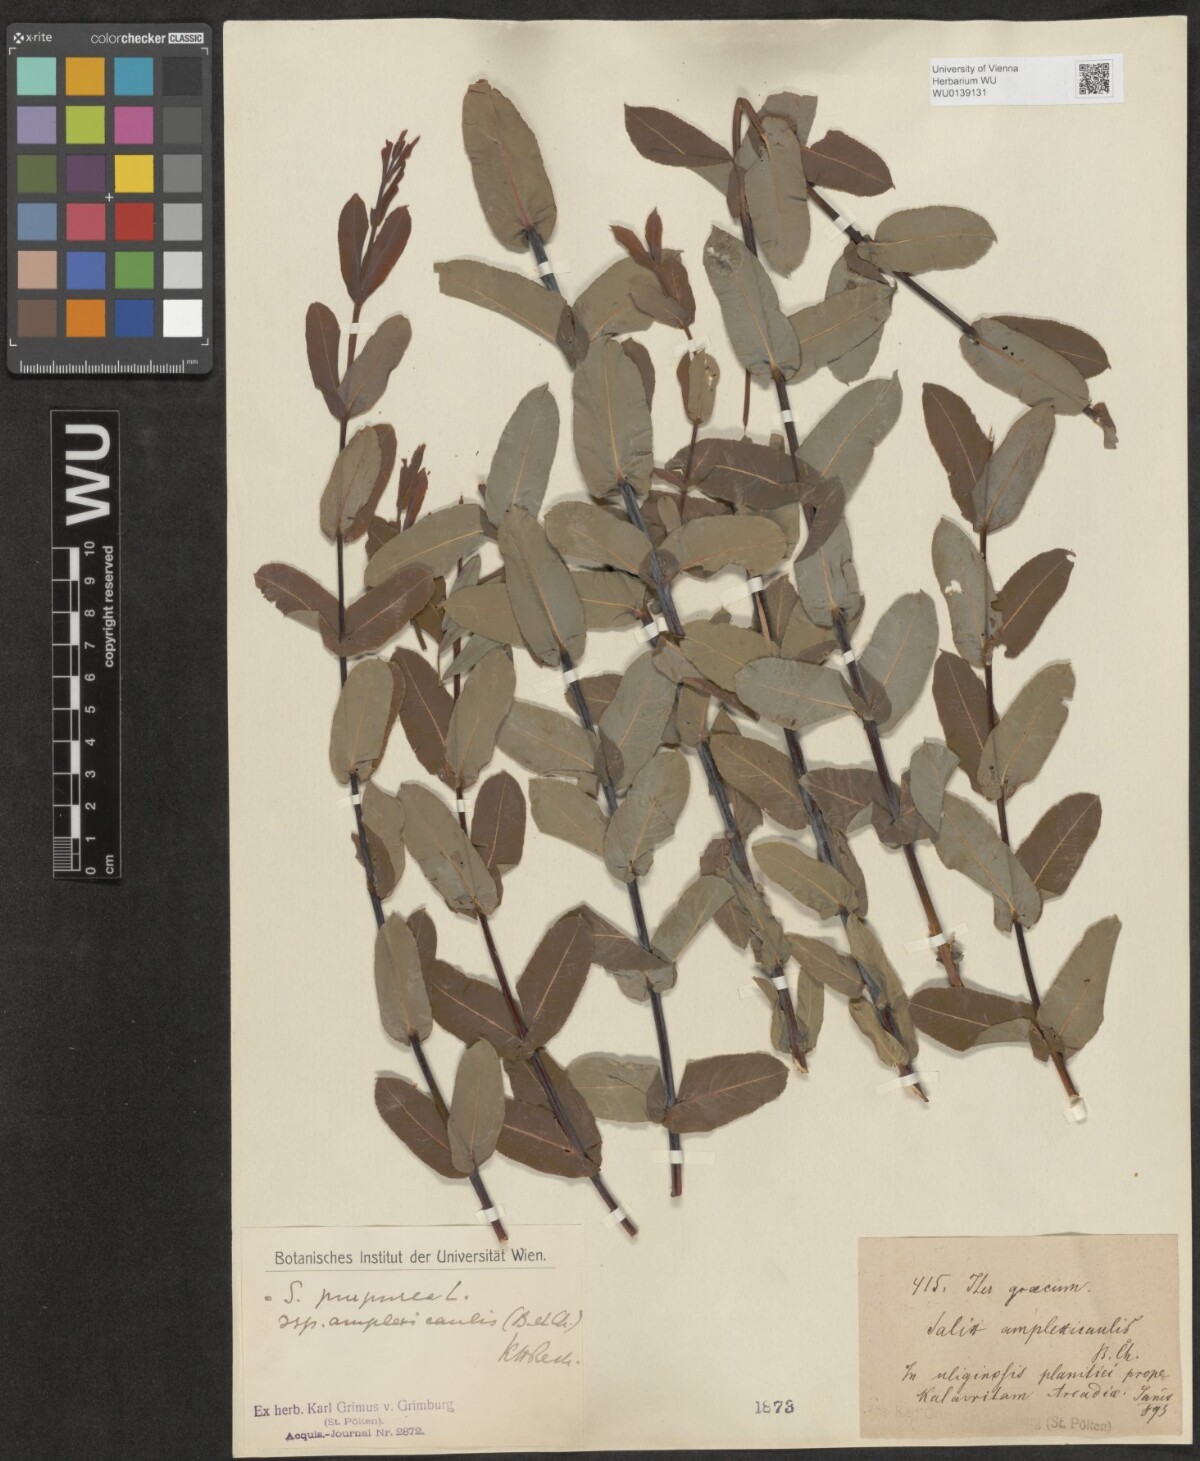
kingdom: Plantae
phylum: Tracheophyta
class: Magnoliopsida
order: Malpighiales
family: Salicaceae
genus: Salix
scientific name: Salix amplexicaulis
